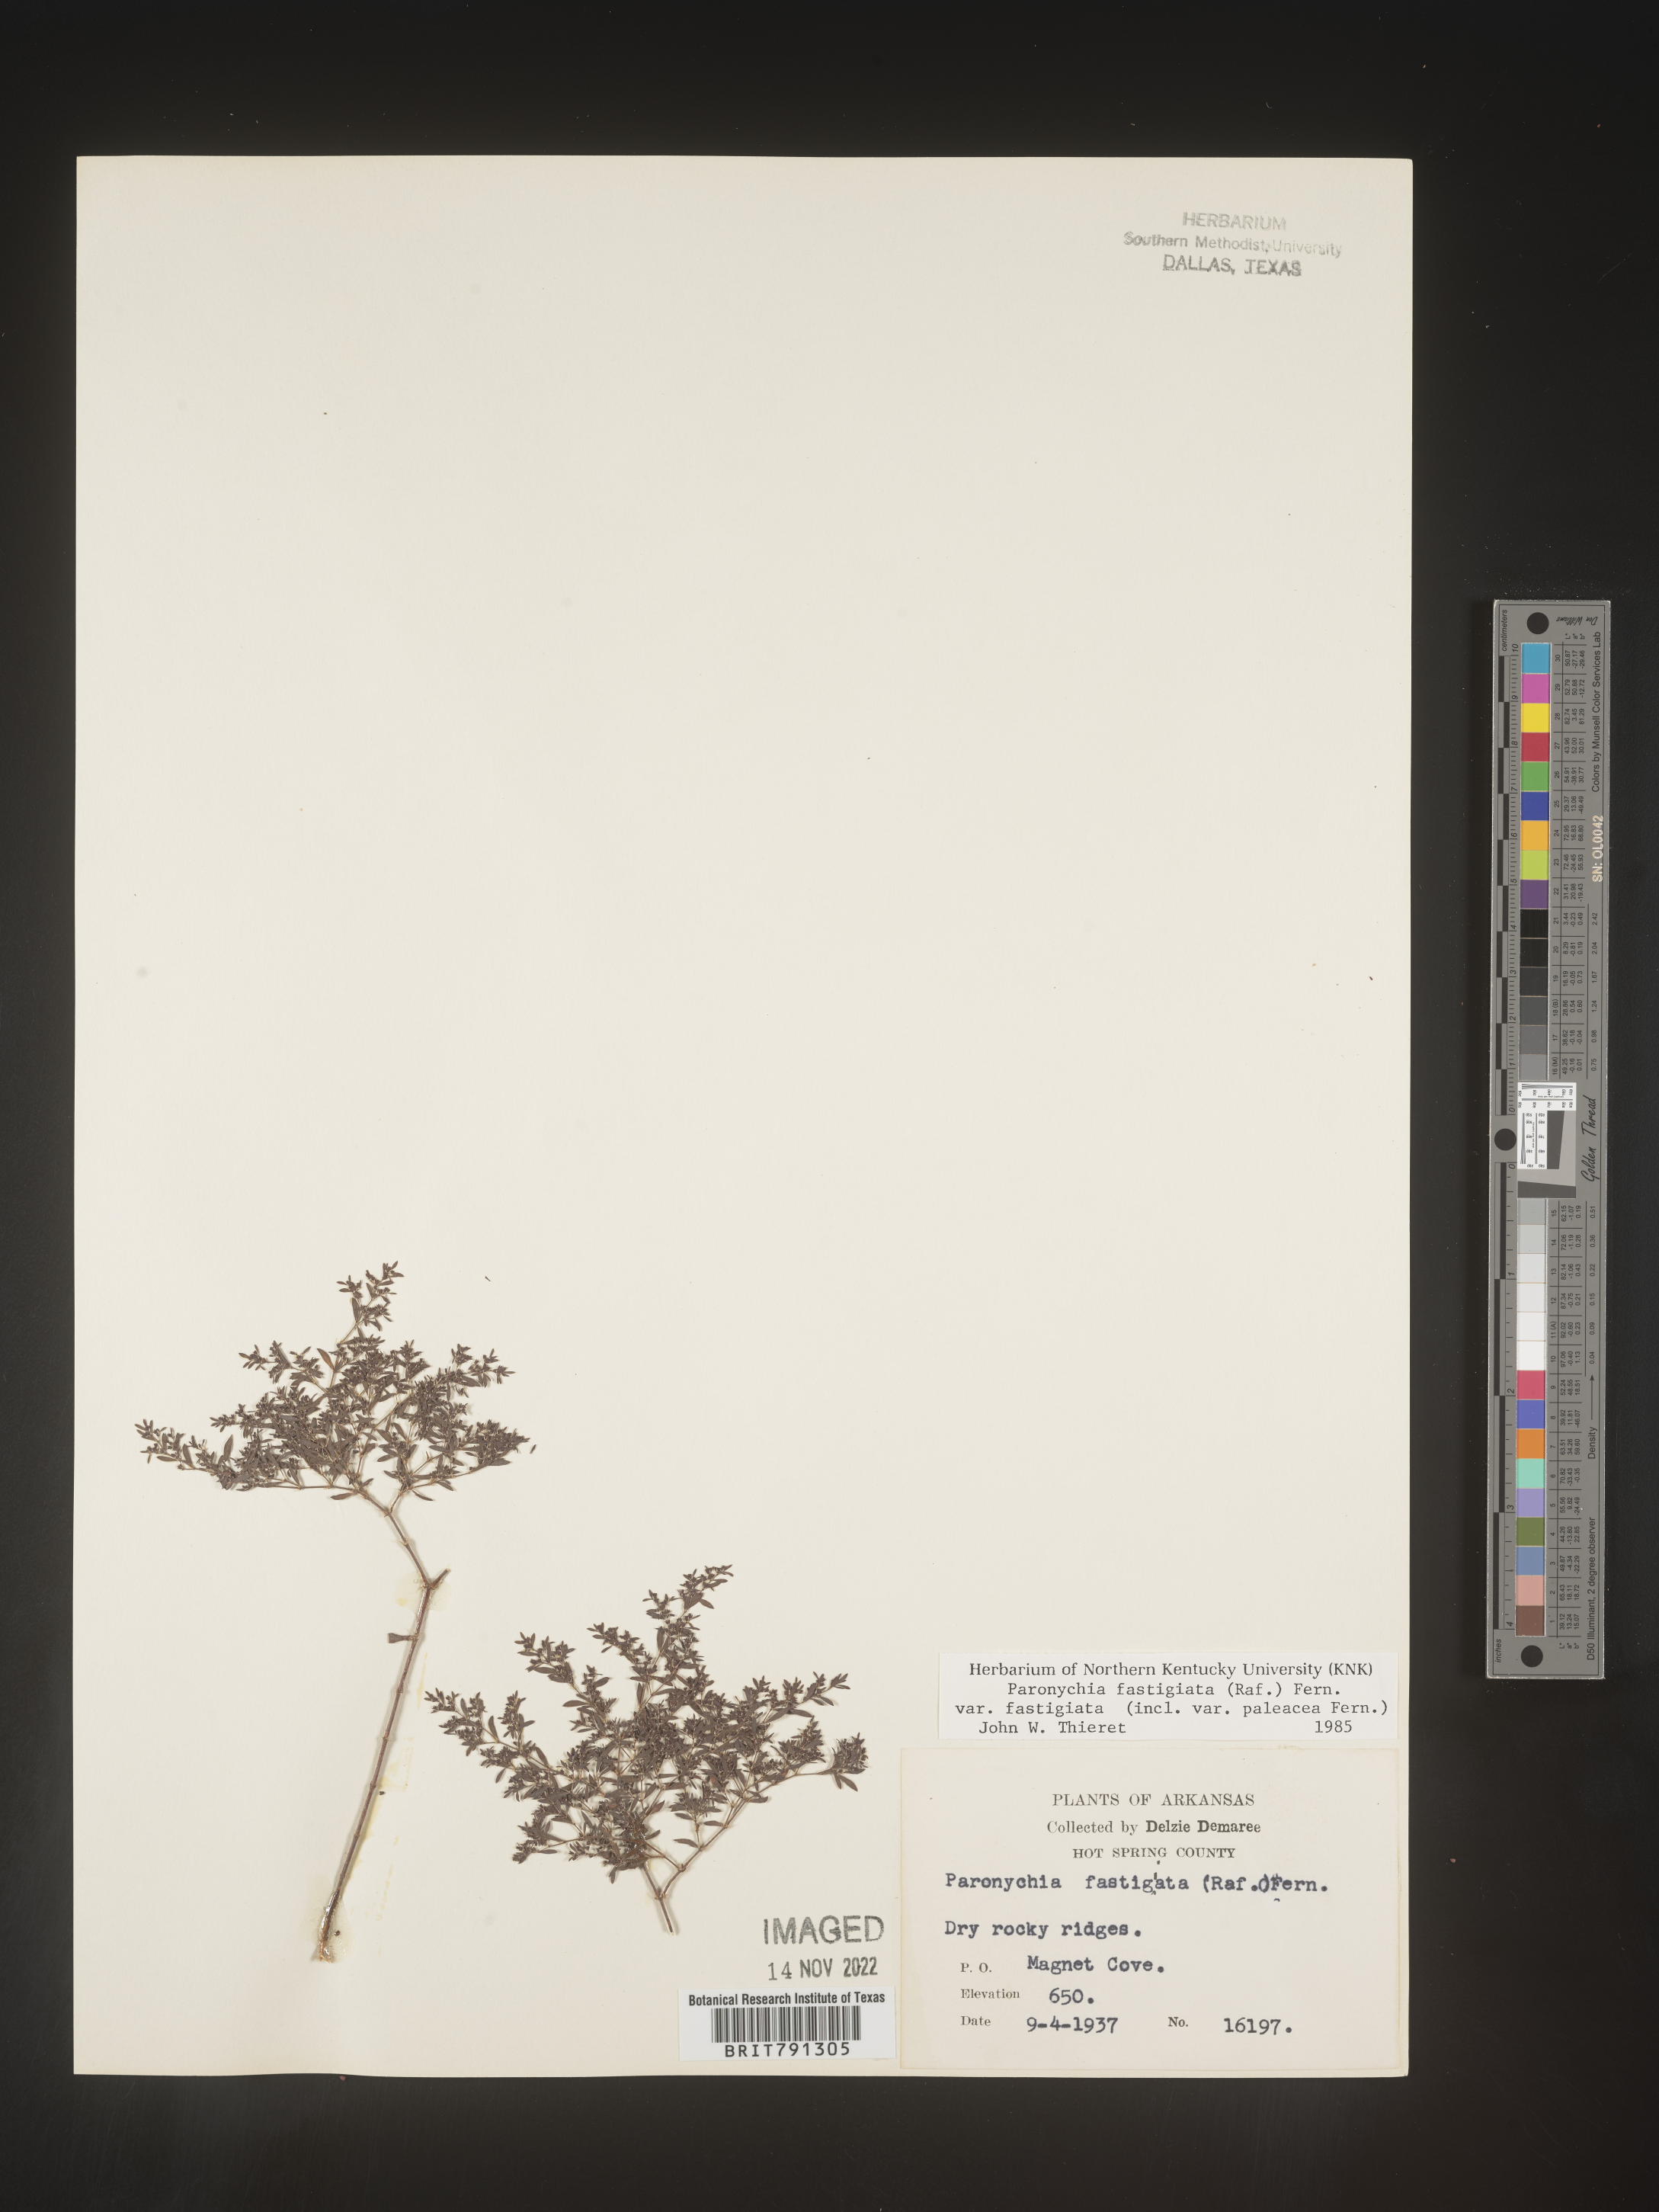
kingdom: Plantae
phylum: Tracheophyta
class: Magnoliopsida
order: Caryophyllales
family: Caryophyllaceae
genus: Paronychia
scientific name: Paronychia fastigiata
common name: Branching forked whitlow-wort
